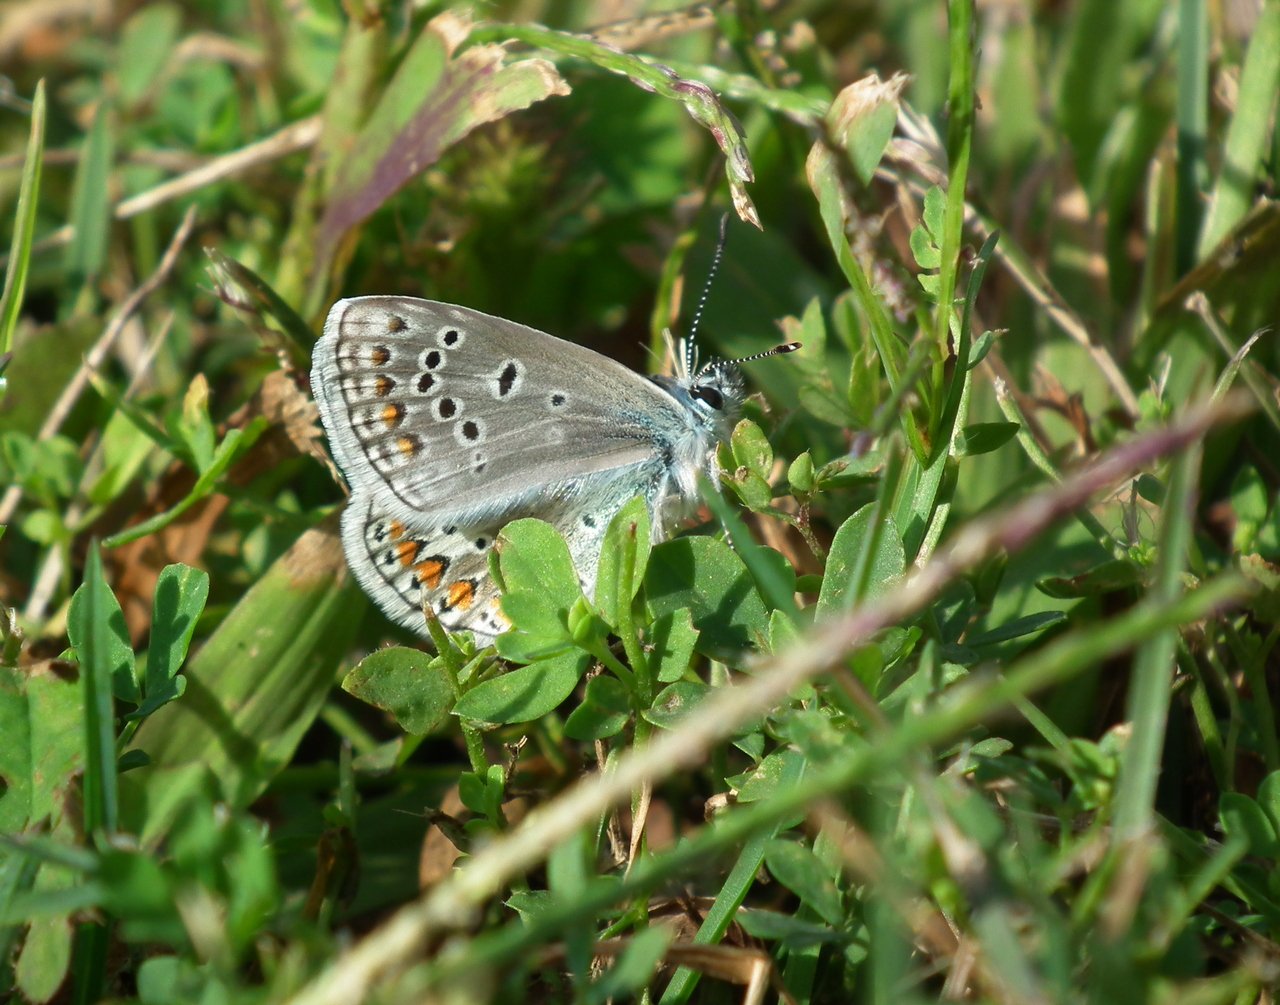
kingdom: Animalia
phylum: Arthropoda
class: Insecta
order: Lepidoptera
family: Lycaenidae
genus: Polyommatus
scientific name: Polyommatus icarus
